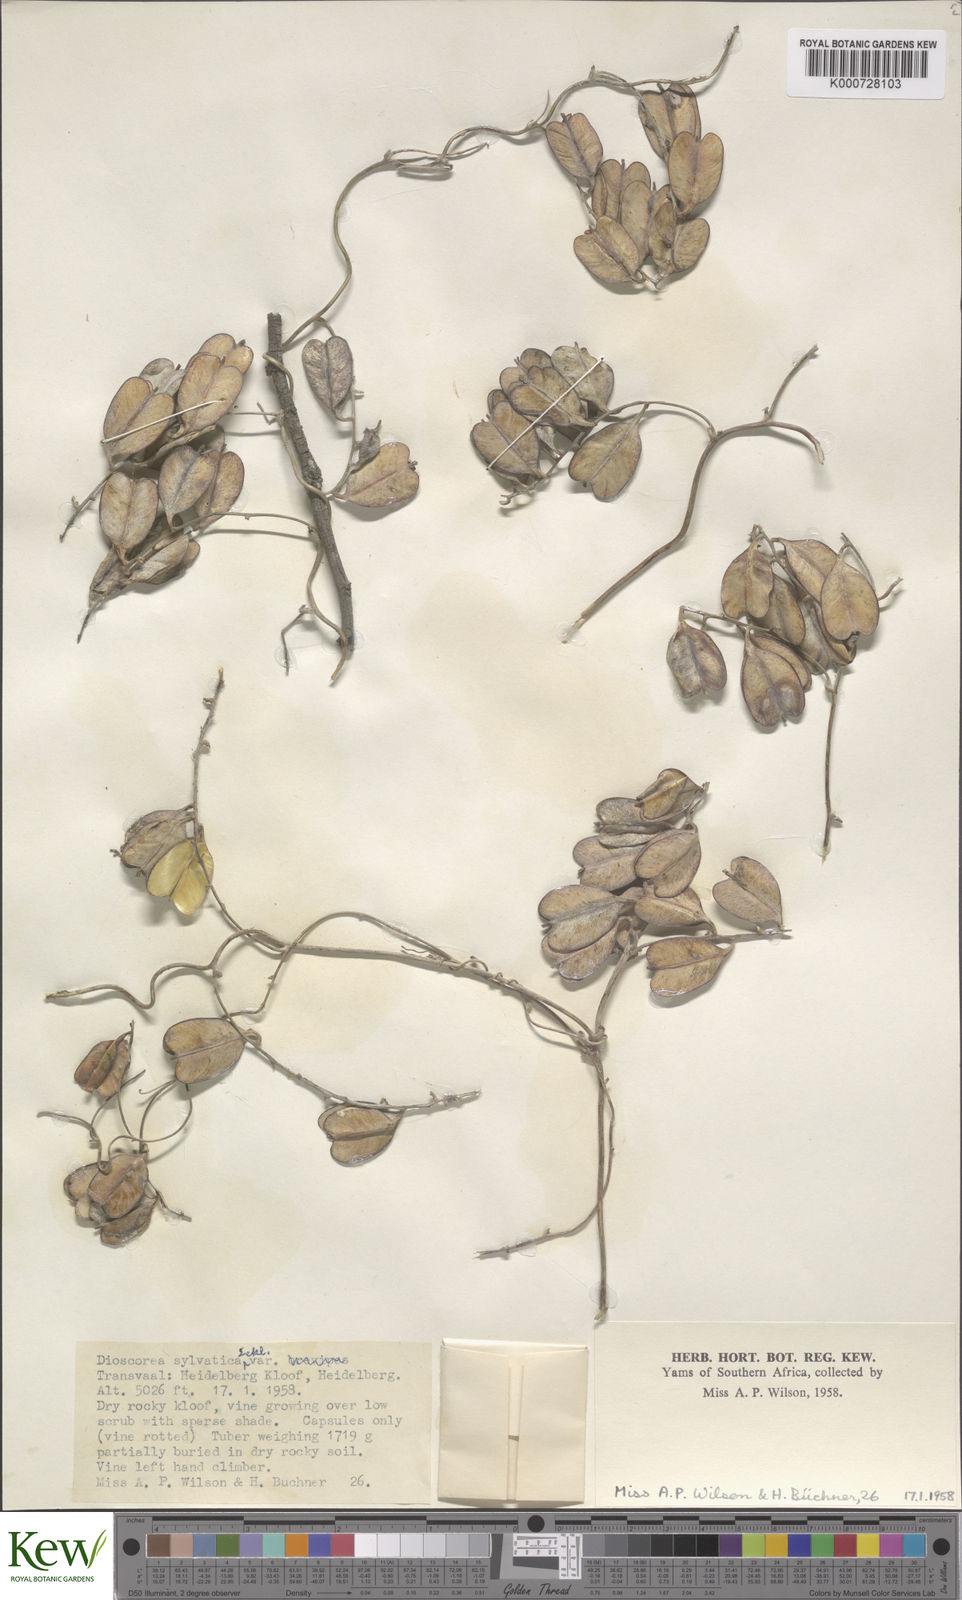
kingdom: Plantae
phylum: Tracheophyta
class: Liliopsida
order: Dioscoreales
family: Dioscoreaceae
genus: Dioscorea
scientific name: Dioscorea sylvatica
